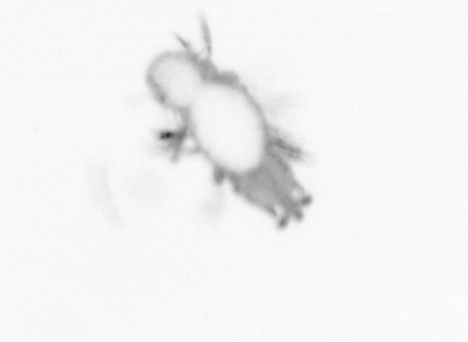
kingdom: Animalia
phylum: Annelida
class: Polychaeta
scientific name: Polychaeta
